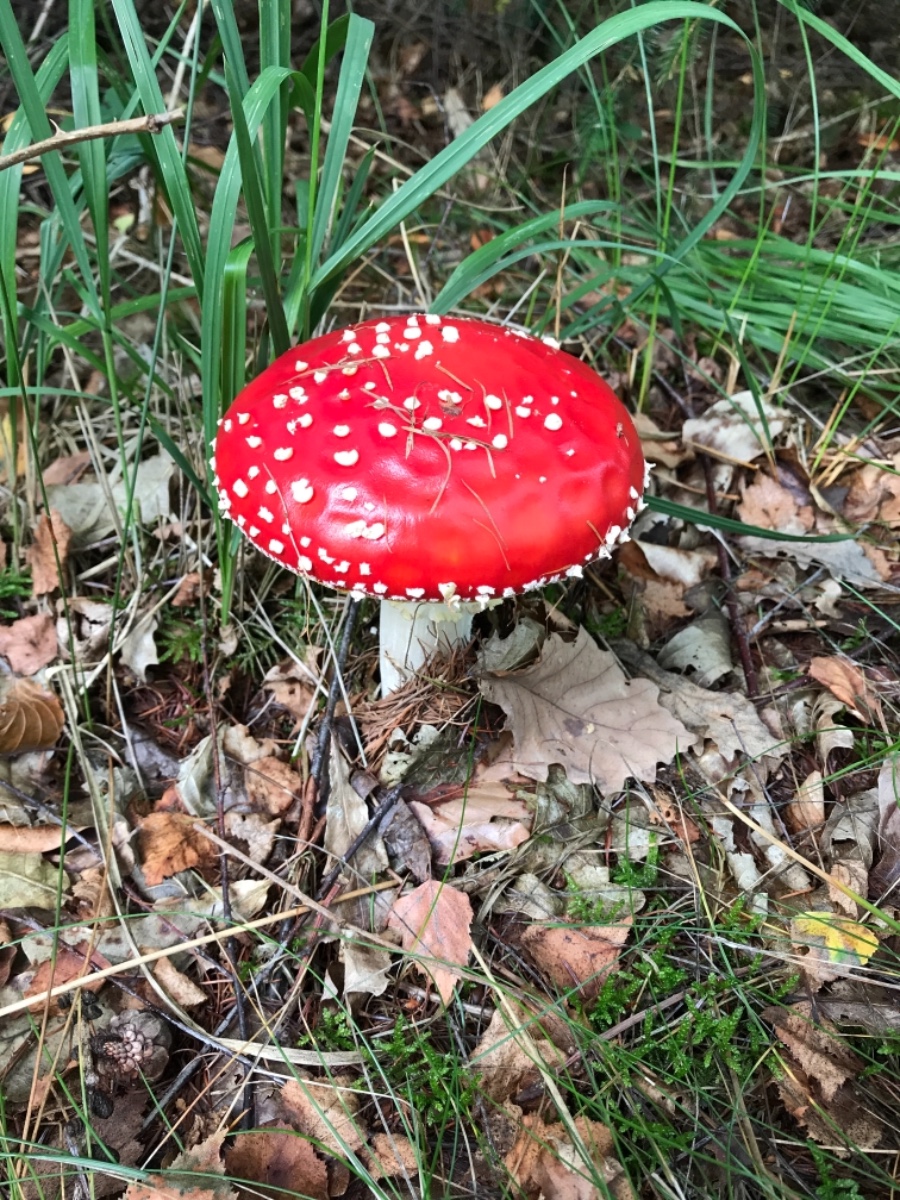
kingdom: Fungi
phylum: Basidiomycota
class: Agaricomycetes
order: Agaricales
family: Amanitaceae
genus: Amanita
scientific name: Amanita muscaria
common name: rød fluesvamp
